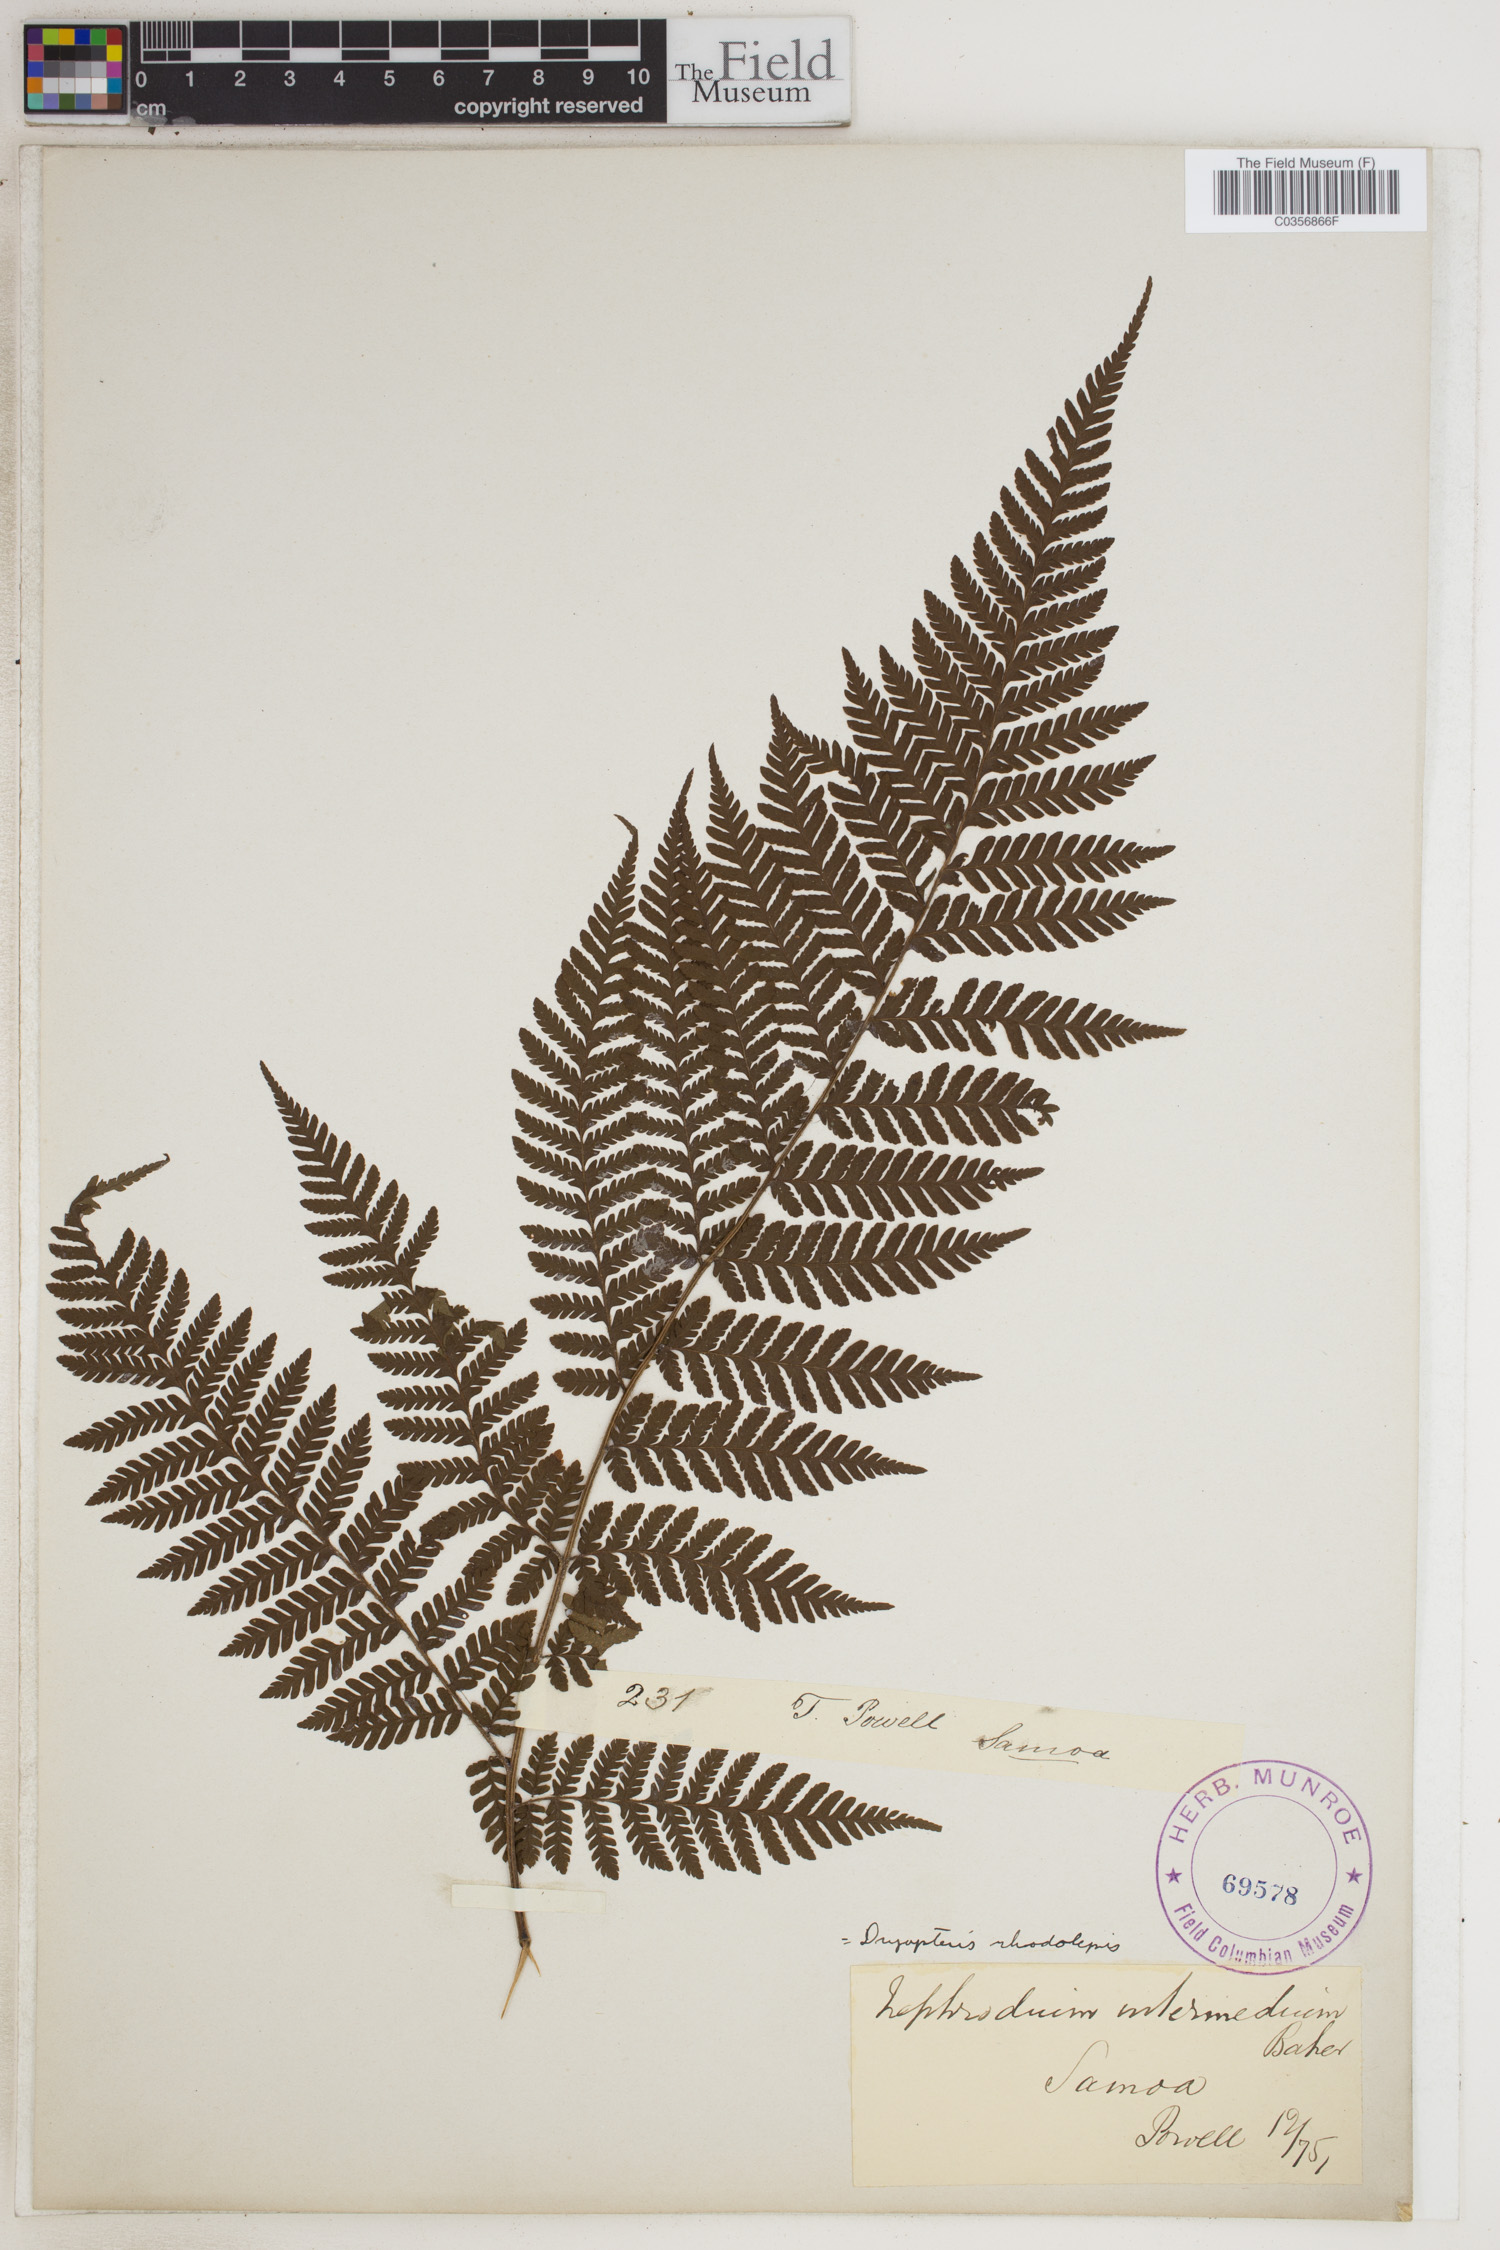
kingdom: Plantae
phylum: Tracheophyta
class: Polypodiopsida
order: Polypodiales
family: Dryopteridaceae
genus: Ctenitis
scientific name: Ctenitis subglandulosa
